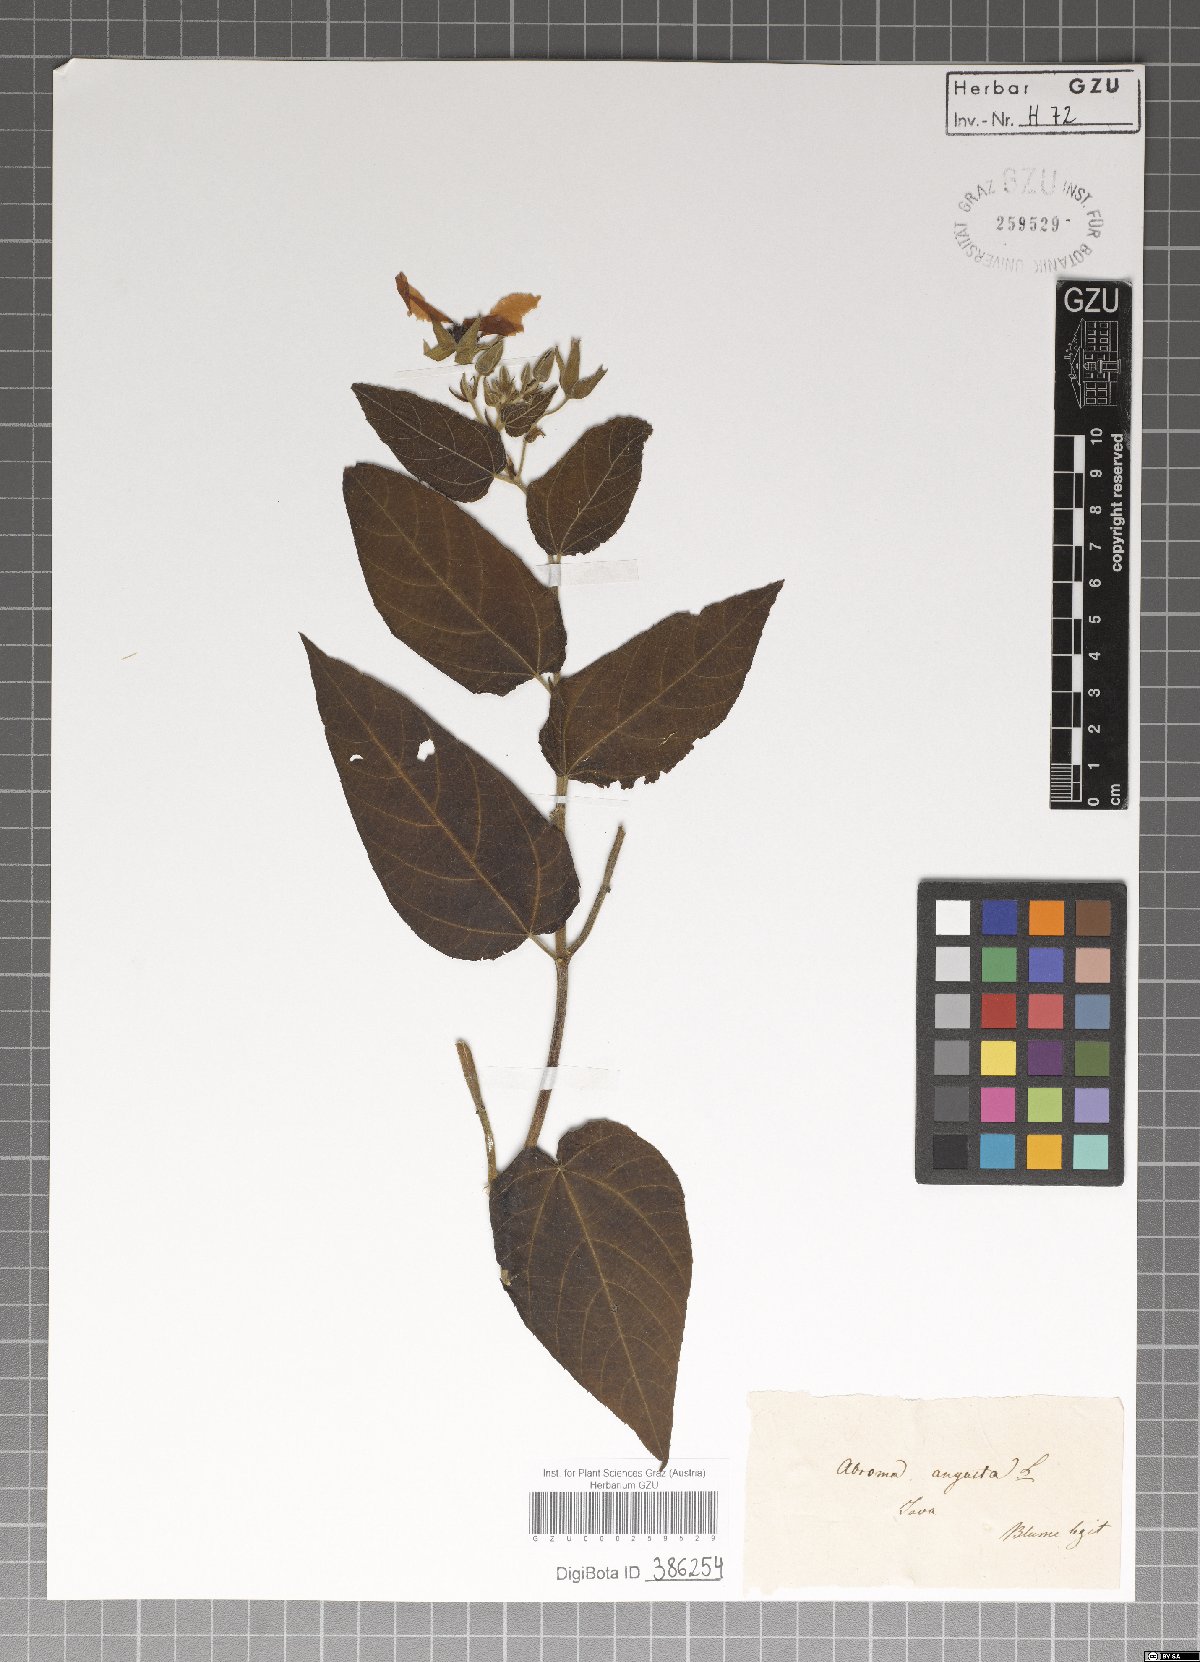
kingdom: Plantae
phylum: Tracheophyta
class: Magnoliopsida
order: Malvales
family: Malvaceae
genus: Abroma
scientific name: Abroma augustum
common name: Devil's-cotton
